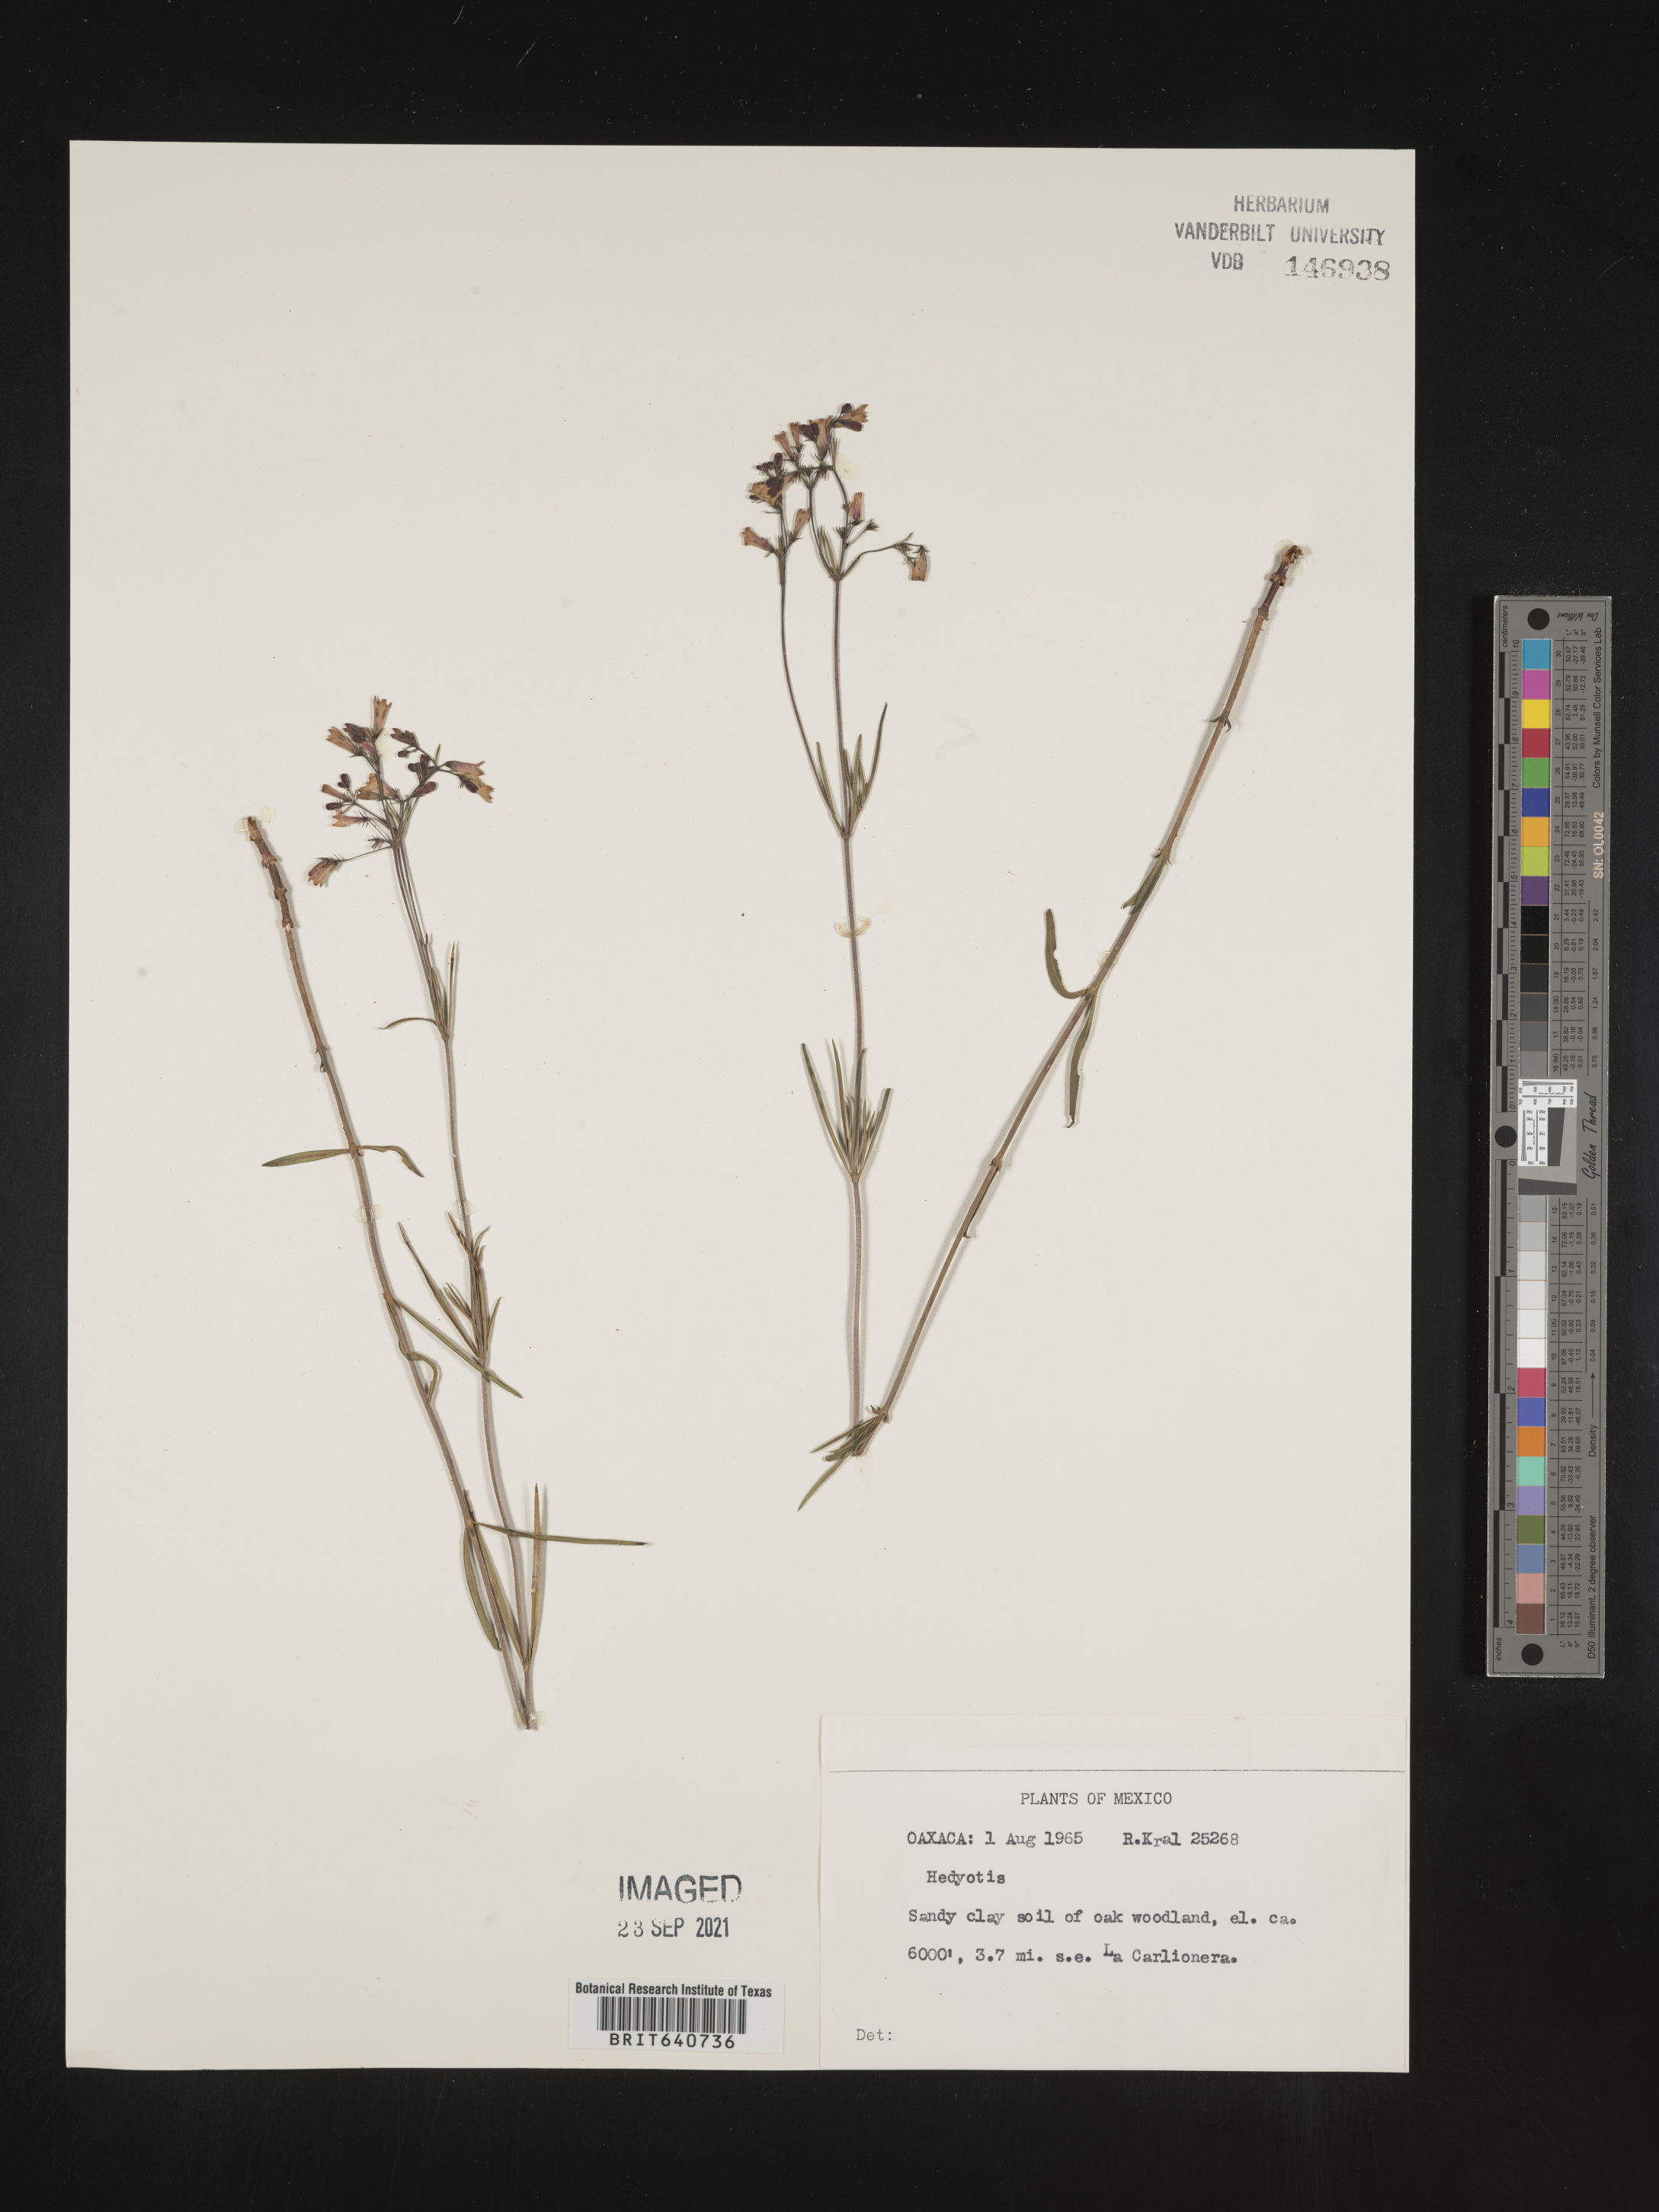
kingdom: Plantae
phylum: Tracheophyta
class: Magnoliopsida
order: Gentianales
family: Rubiaceae
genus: Hedyotis
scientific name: Hedyotis
